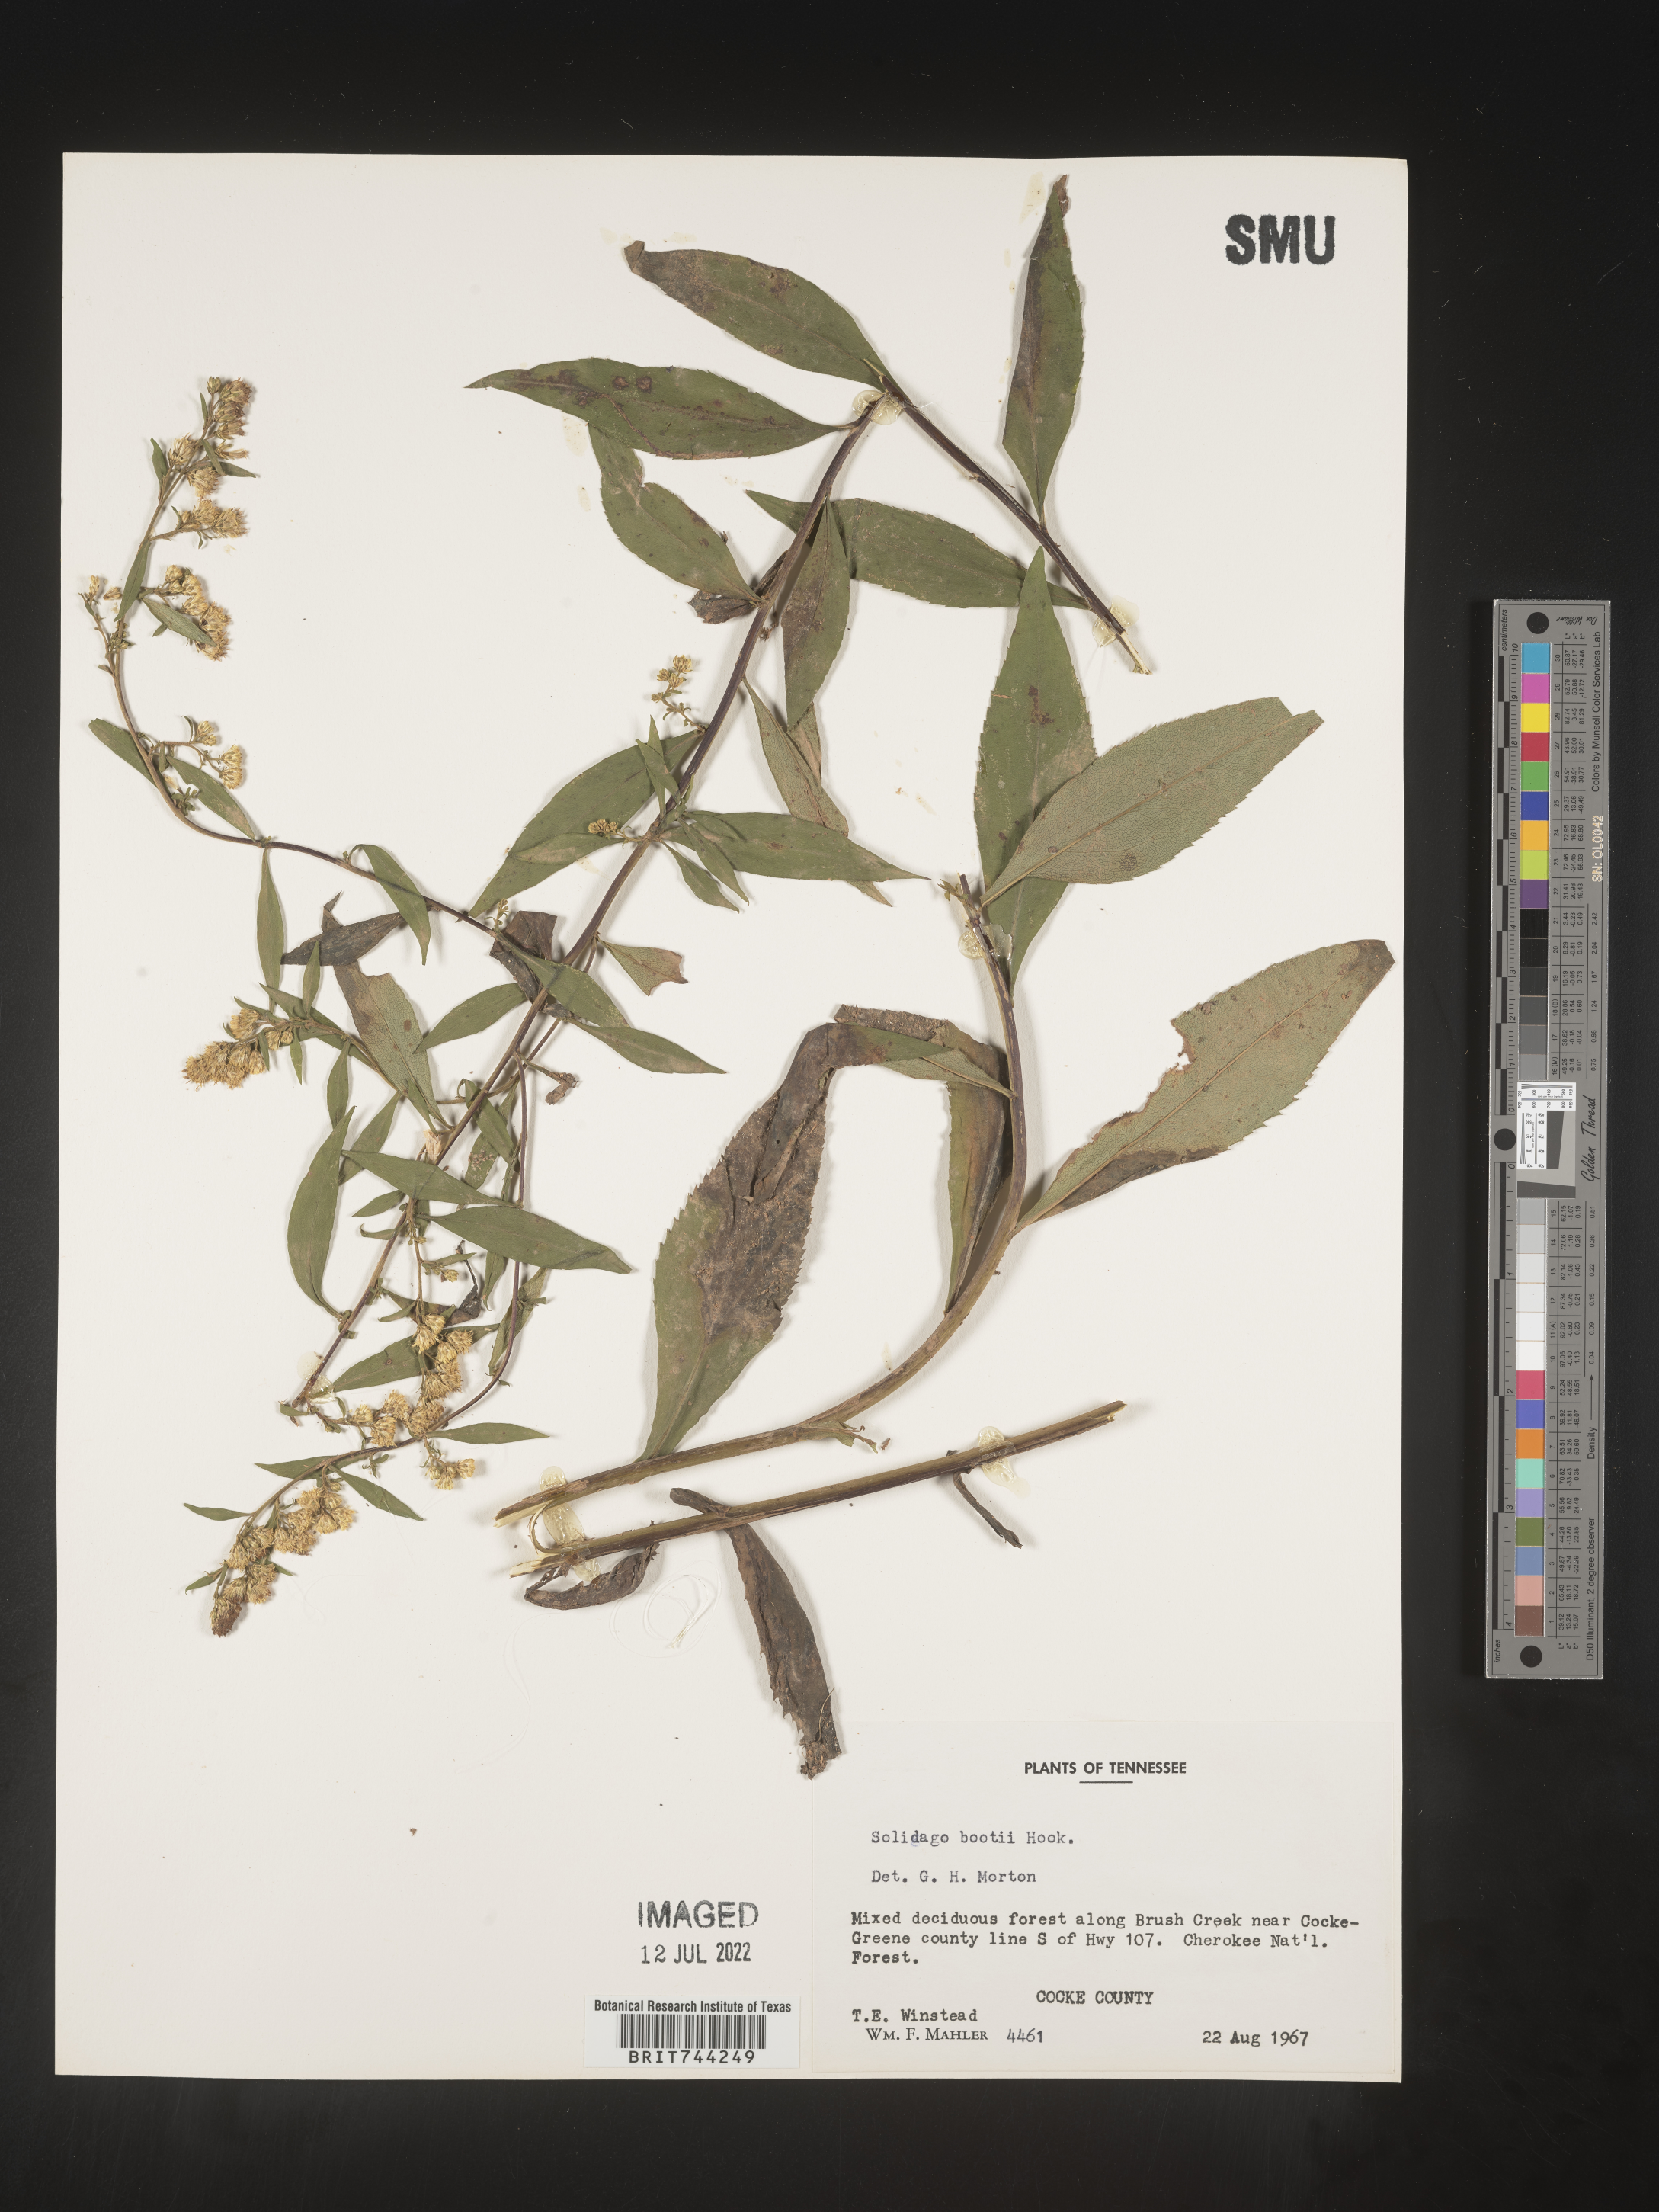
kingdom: Plantae
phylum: Tracheophyta
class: Magnoliopsida
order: Asterales
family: Asteraceae
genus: Solidago
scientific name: Solidago vaseyi
